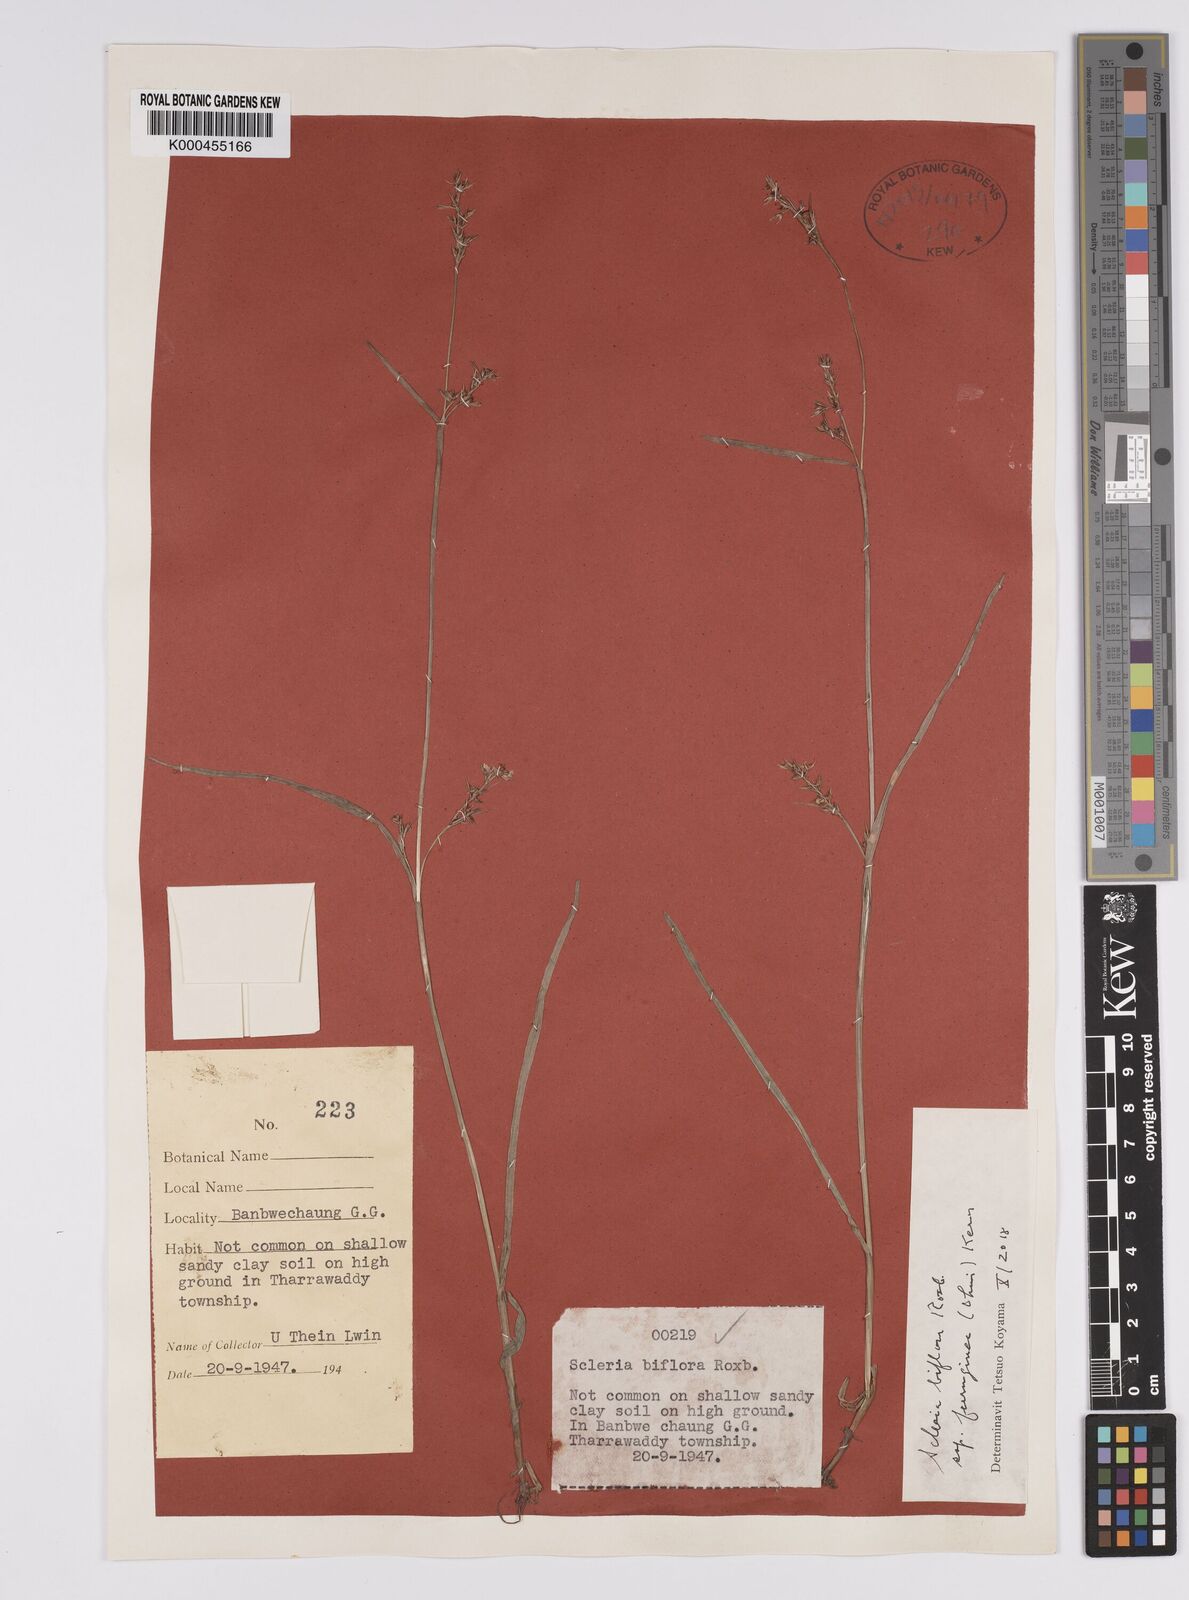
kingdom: Plantae
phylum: Tracheophyta
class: Liliopsida
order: Poales
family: Cyperaceae
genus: Scleria
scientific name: Scleria biflora
